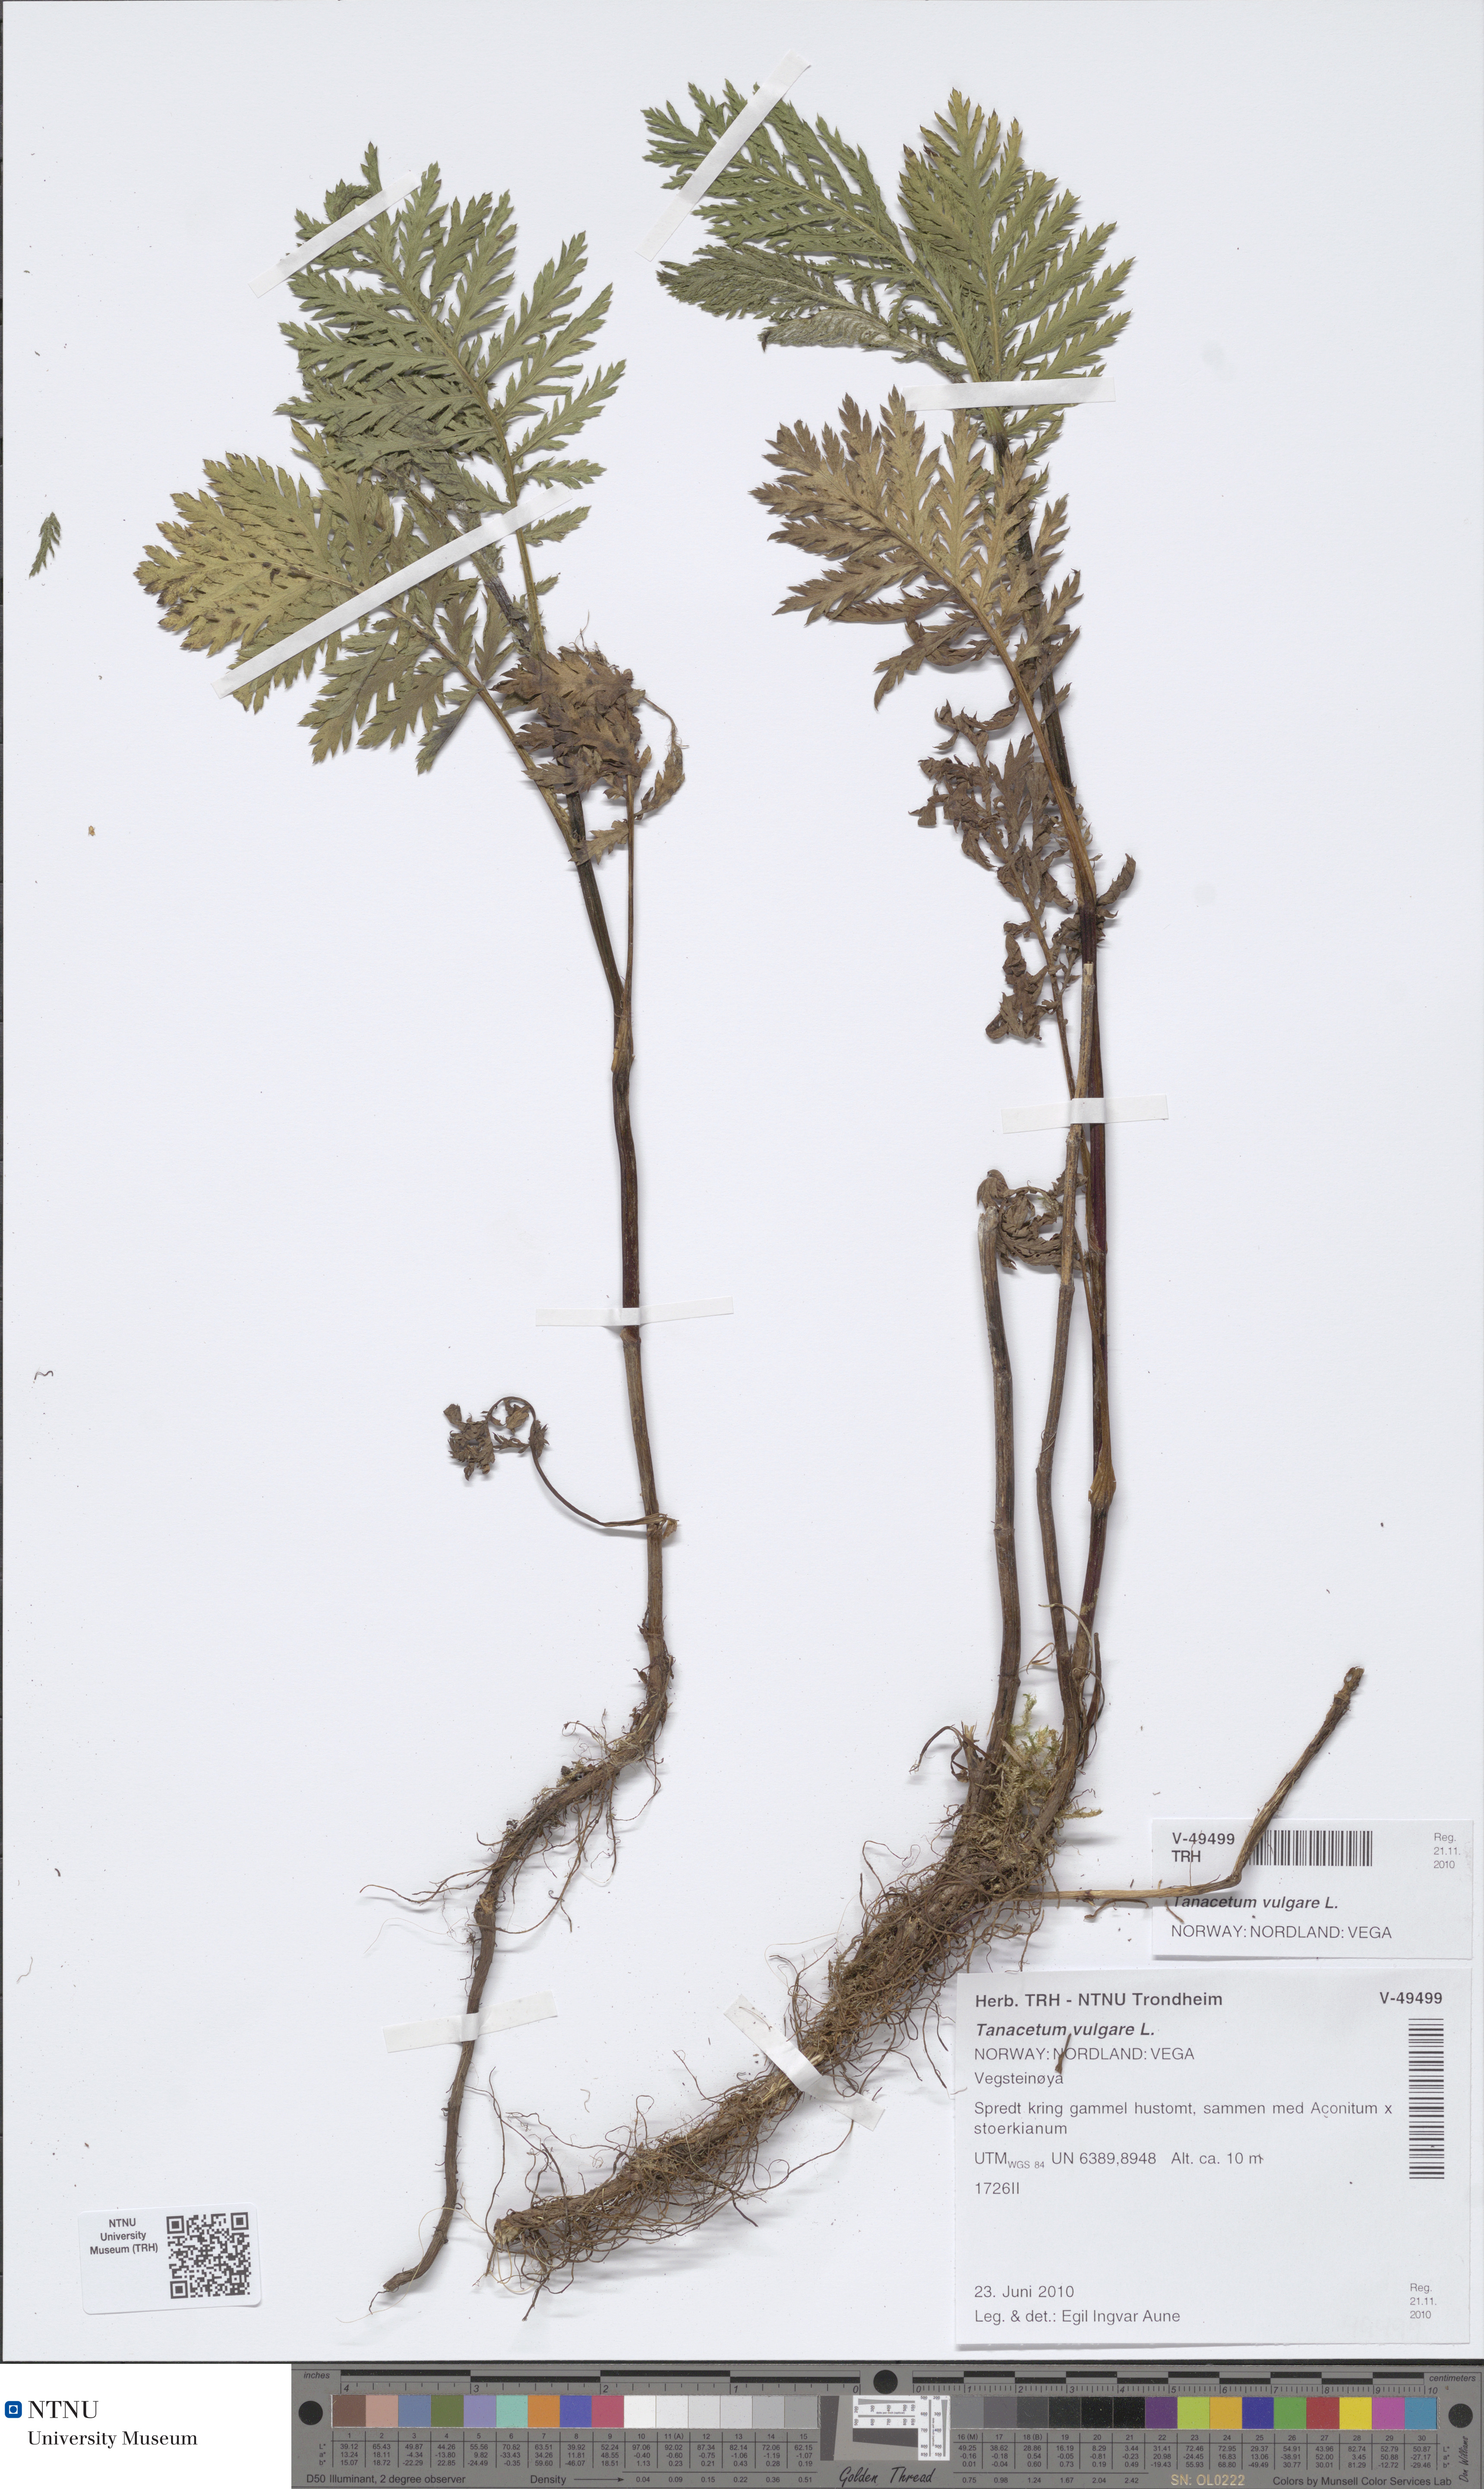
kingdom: Plantae
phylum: Tracheophyta
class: Magnoliopsida
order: Asterales
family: Asteraceae
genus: Tanacetum
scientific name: Tanacetum vulgare
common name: Common tansy
